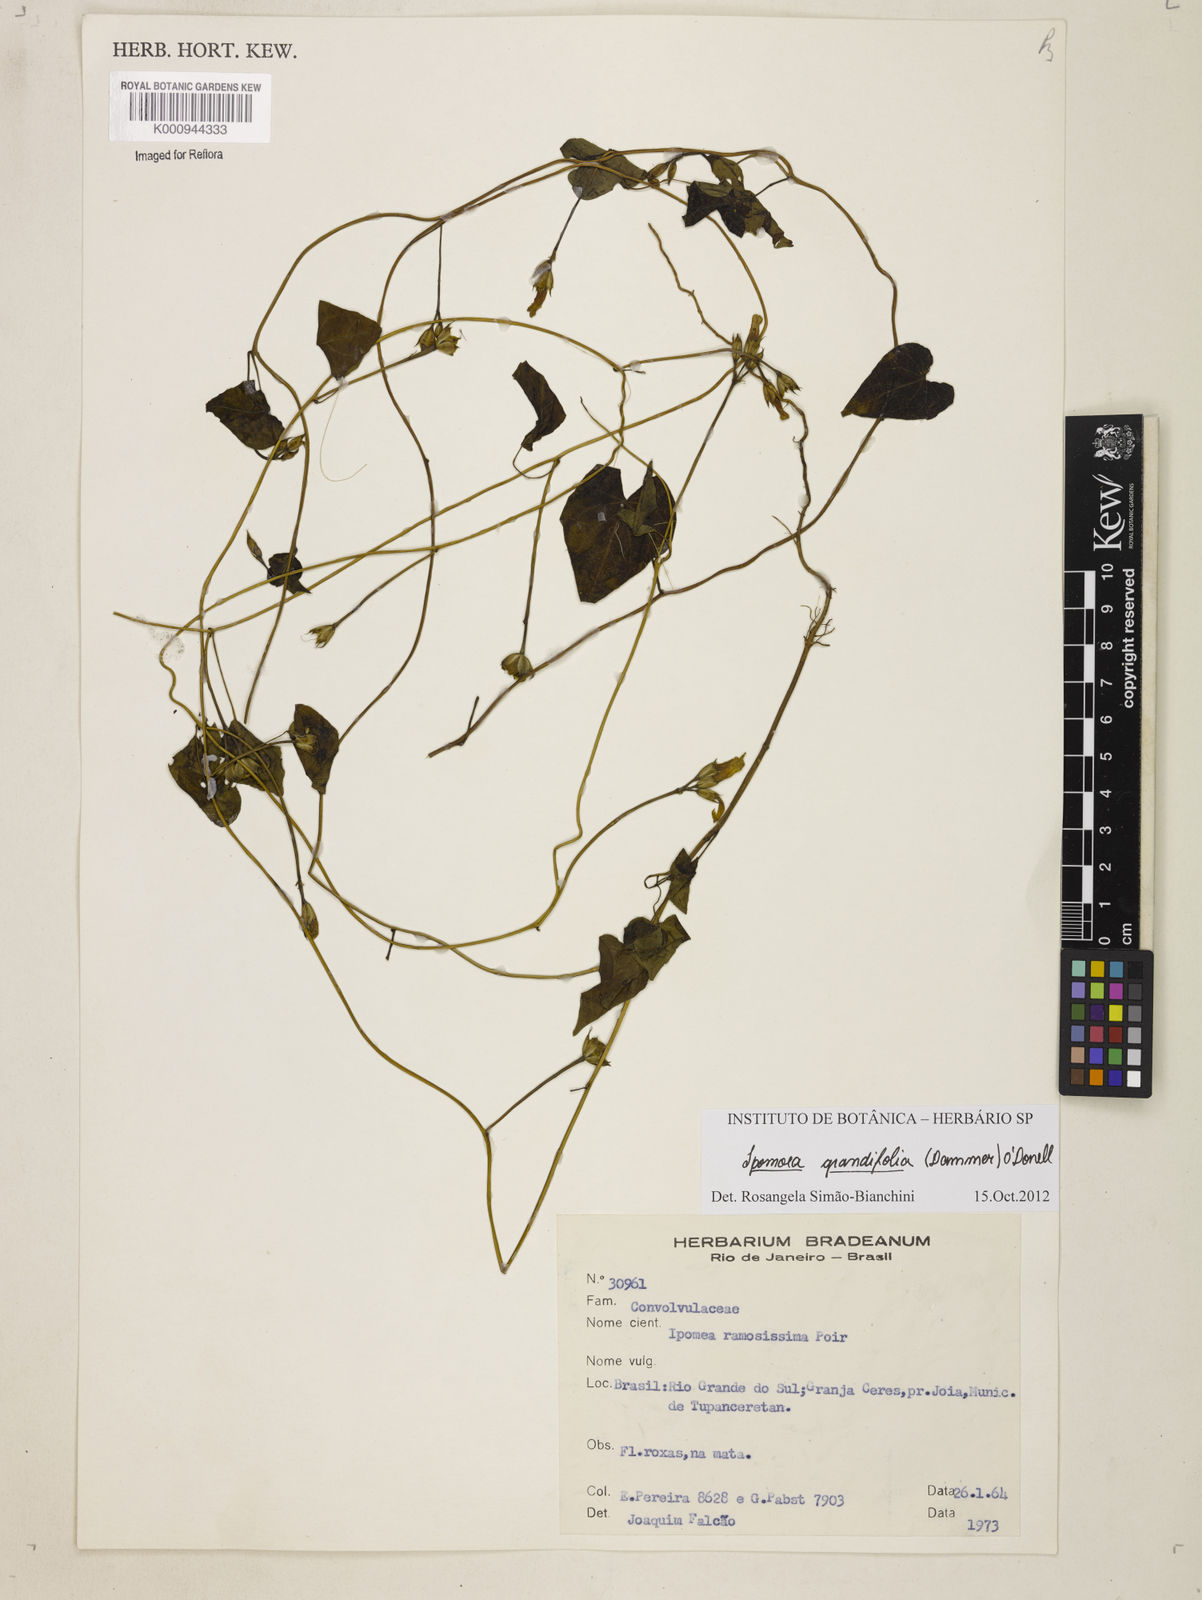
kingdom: Plantae
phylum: Tracheophyta
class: Magnoliopsida
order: Solanales
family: Convolvulaceae
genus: Ipomoea
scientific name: Ipomoea grandifolia
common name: Aiea morning glory
